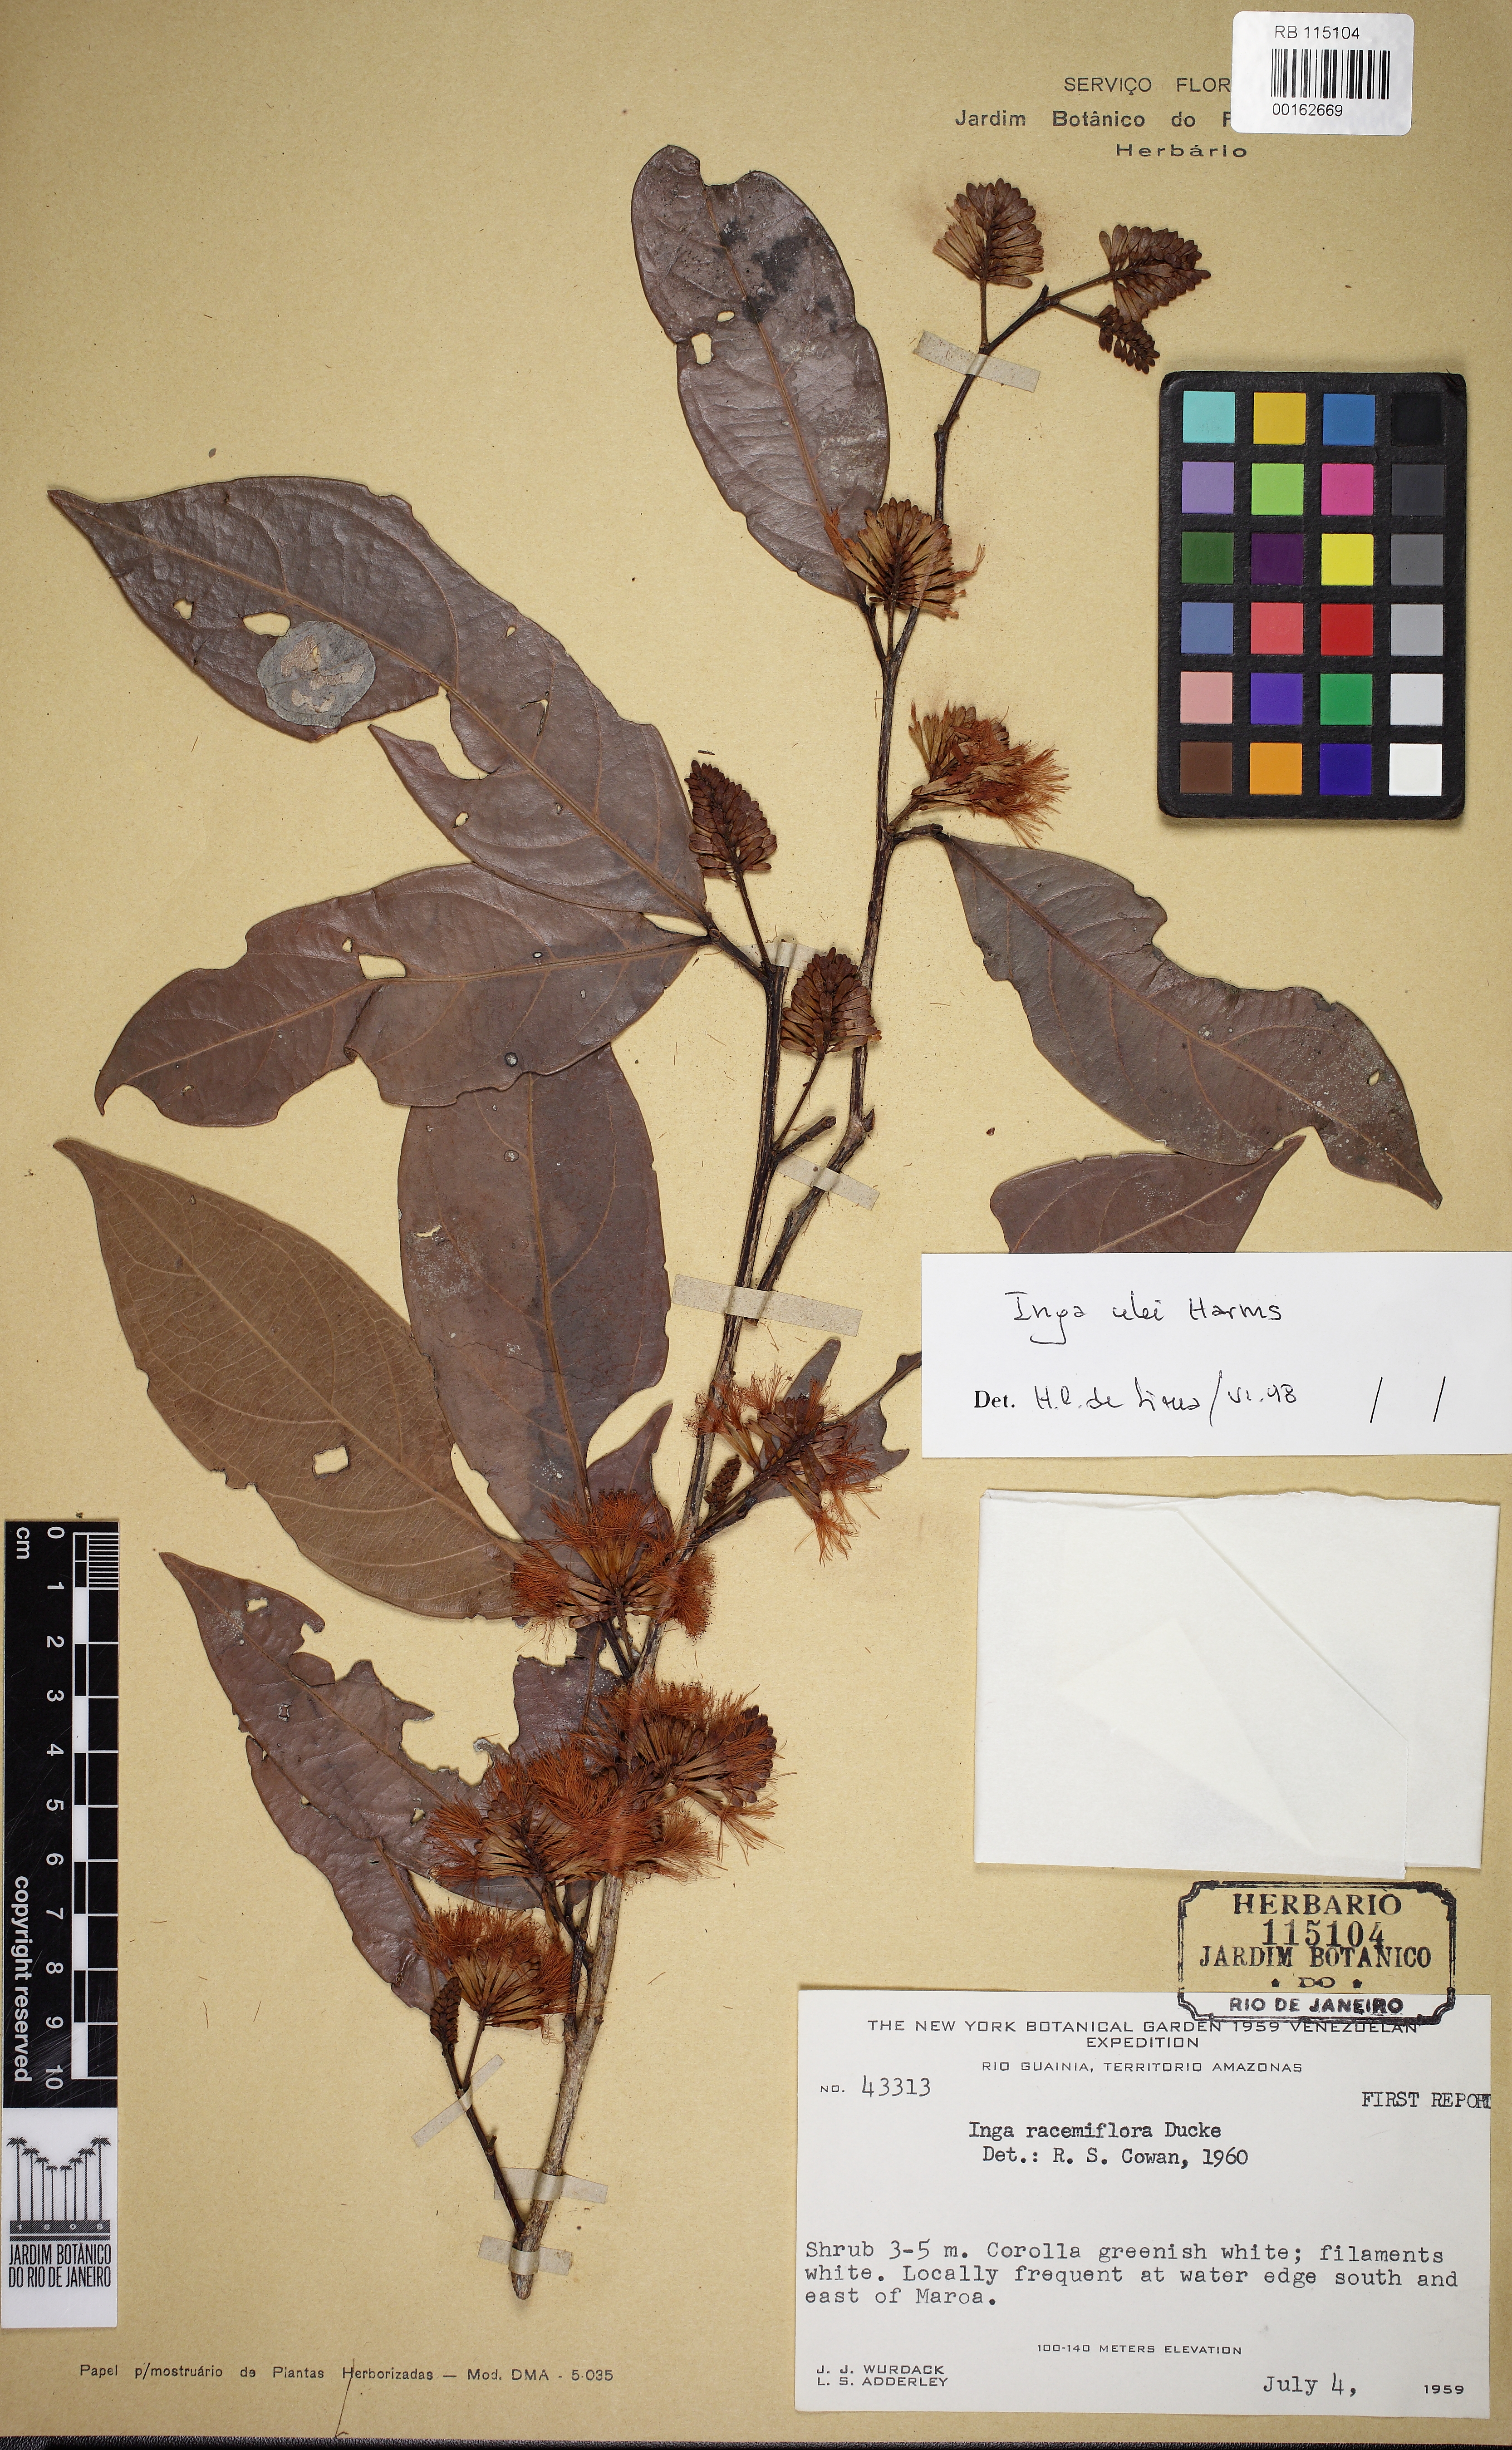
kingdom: Plantae
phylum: Tracheophyta
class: Magnoliopsida
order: Fabales
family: Fabaceae
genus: Inga
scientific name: Inga ulei
